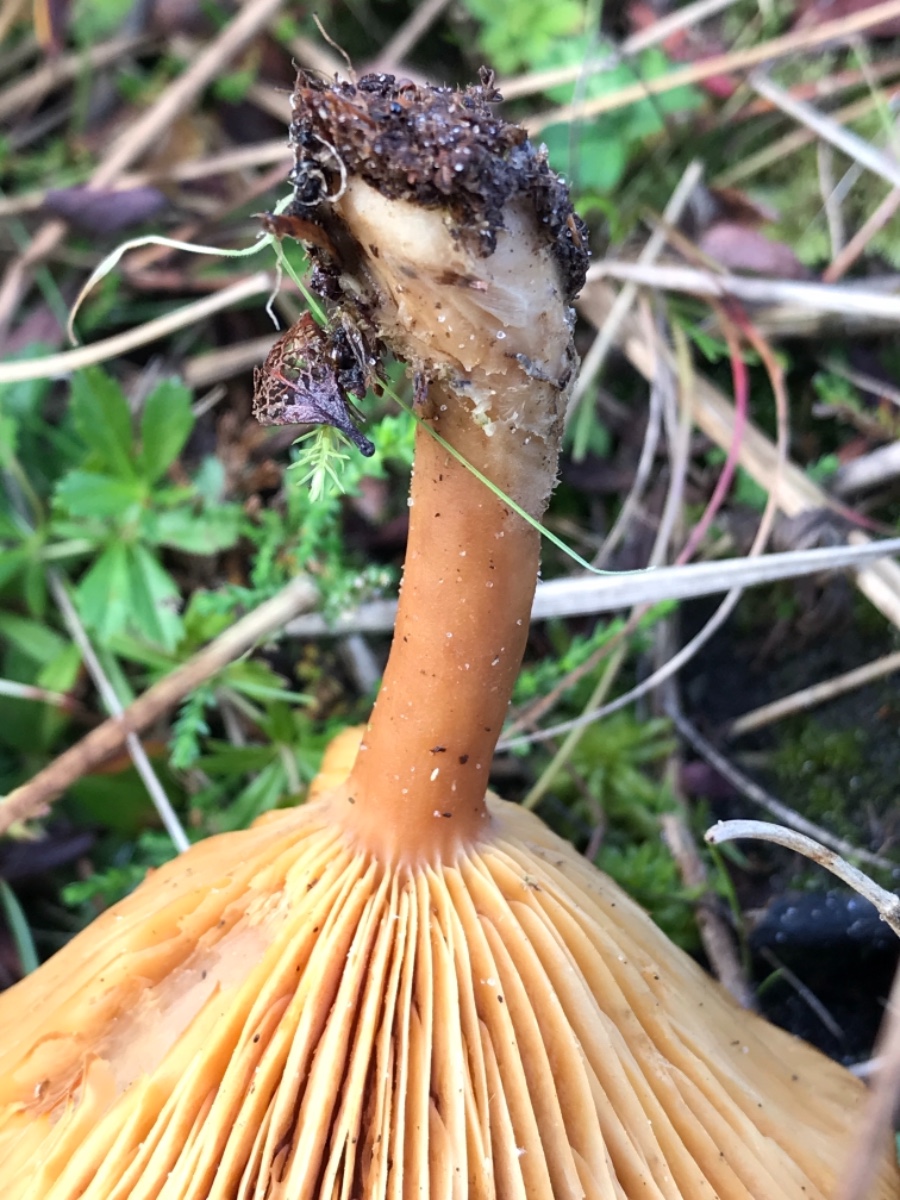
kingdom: Fungi
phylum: Basidiomycota
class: Agaricomycetes
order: Russulales
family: Russulaceae
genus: Lactarius
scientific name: Lactarius helvus
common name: mose-mælkehat
